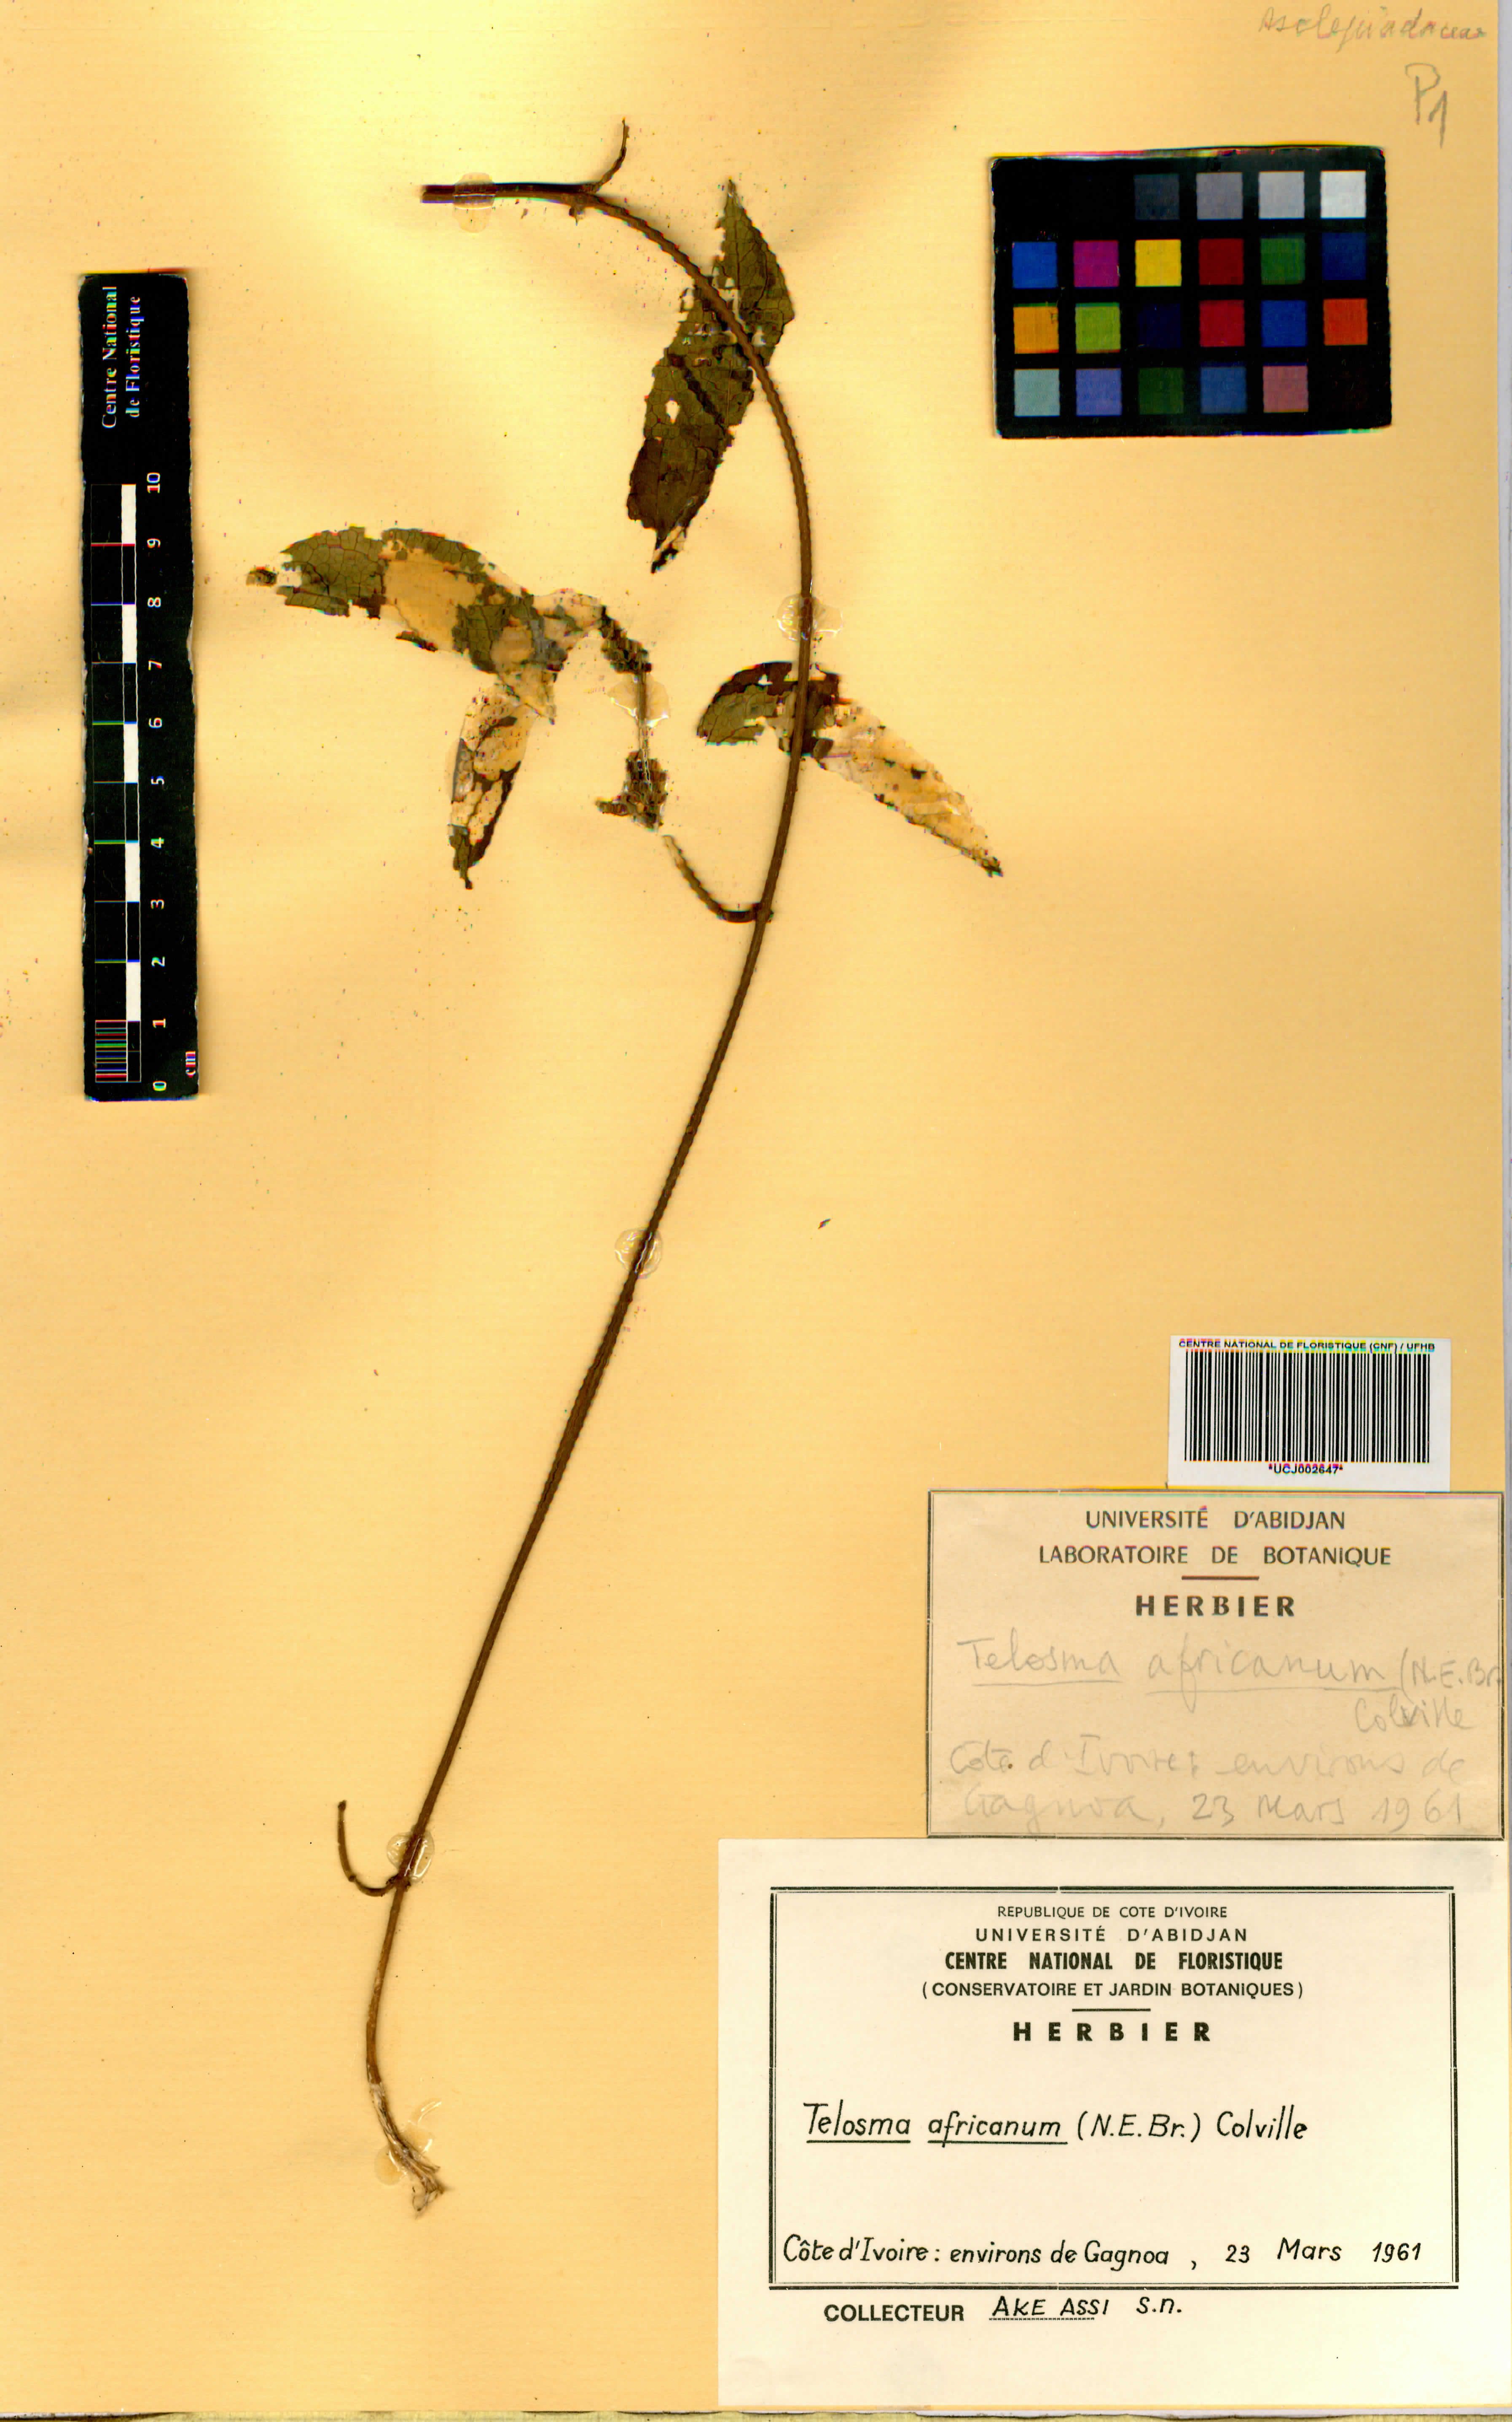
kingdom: Plantae
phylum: Tracheophyta
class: Magnoliopsida
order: Gentianales
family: Apocynaceae
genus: Telosma
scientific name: Telosma africana
